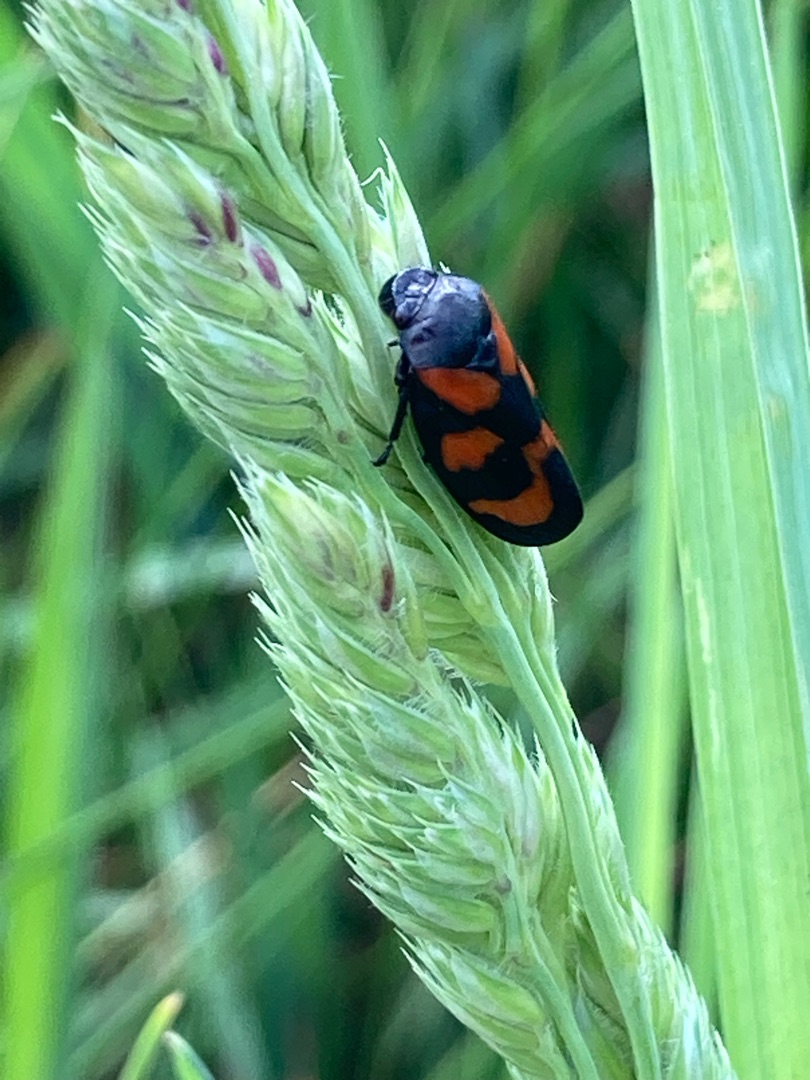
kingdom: Animalia
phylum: Arthropoda
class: Insecta
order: Hemiptera
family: Cercopidae
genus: Cercopis
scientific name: Cercopis vulnerata
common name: Blodcikade
